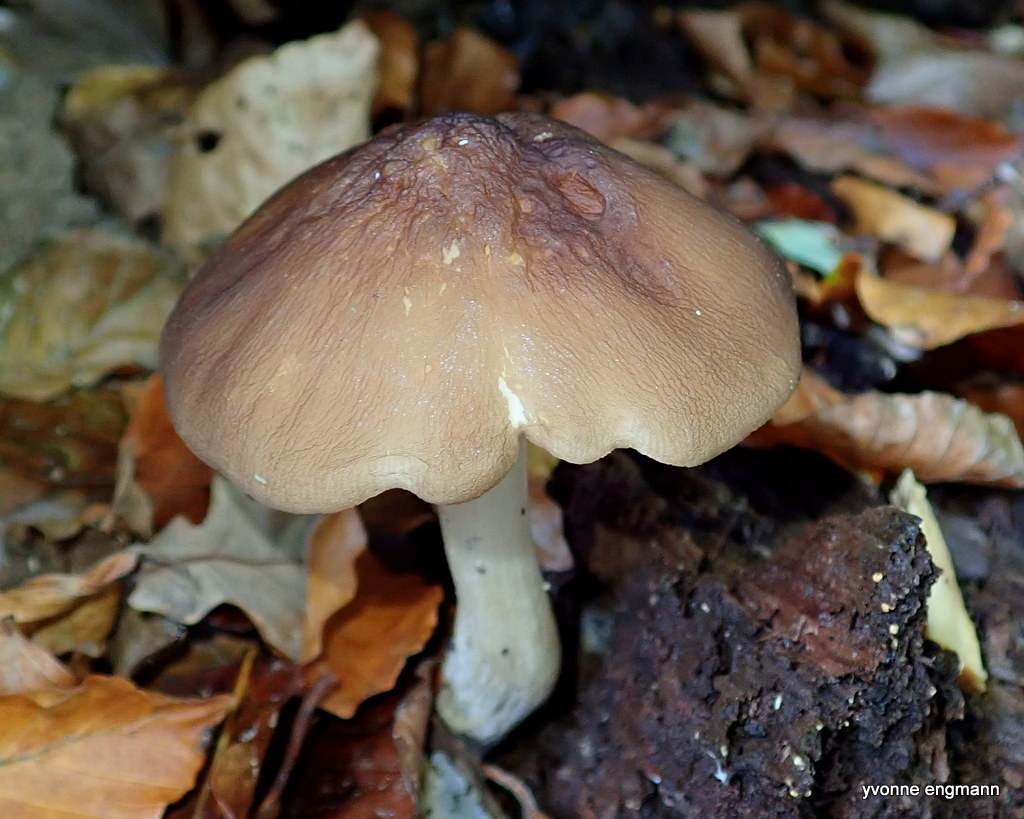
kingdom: Fungi
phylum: Basidiomycota
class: Agaricomycetes
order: Agaricales
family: Pluteaceae
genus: Pluteus
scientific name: Pluteus cervinus
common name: sodfarvet skærmhat
